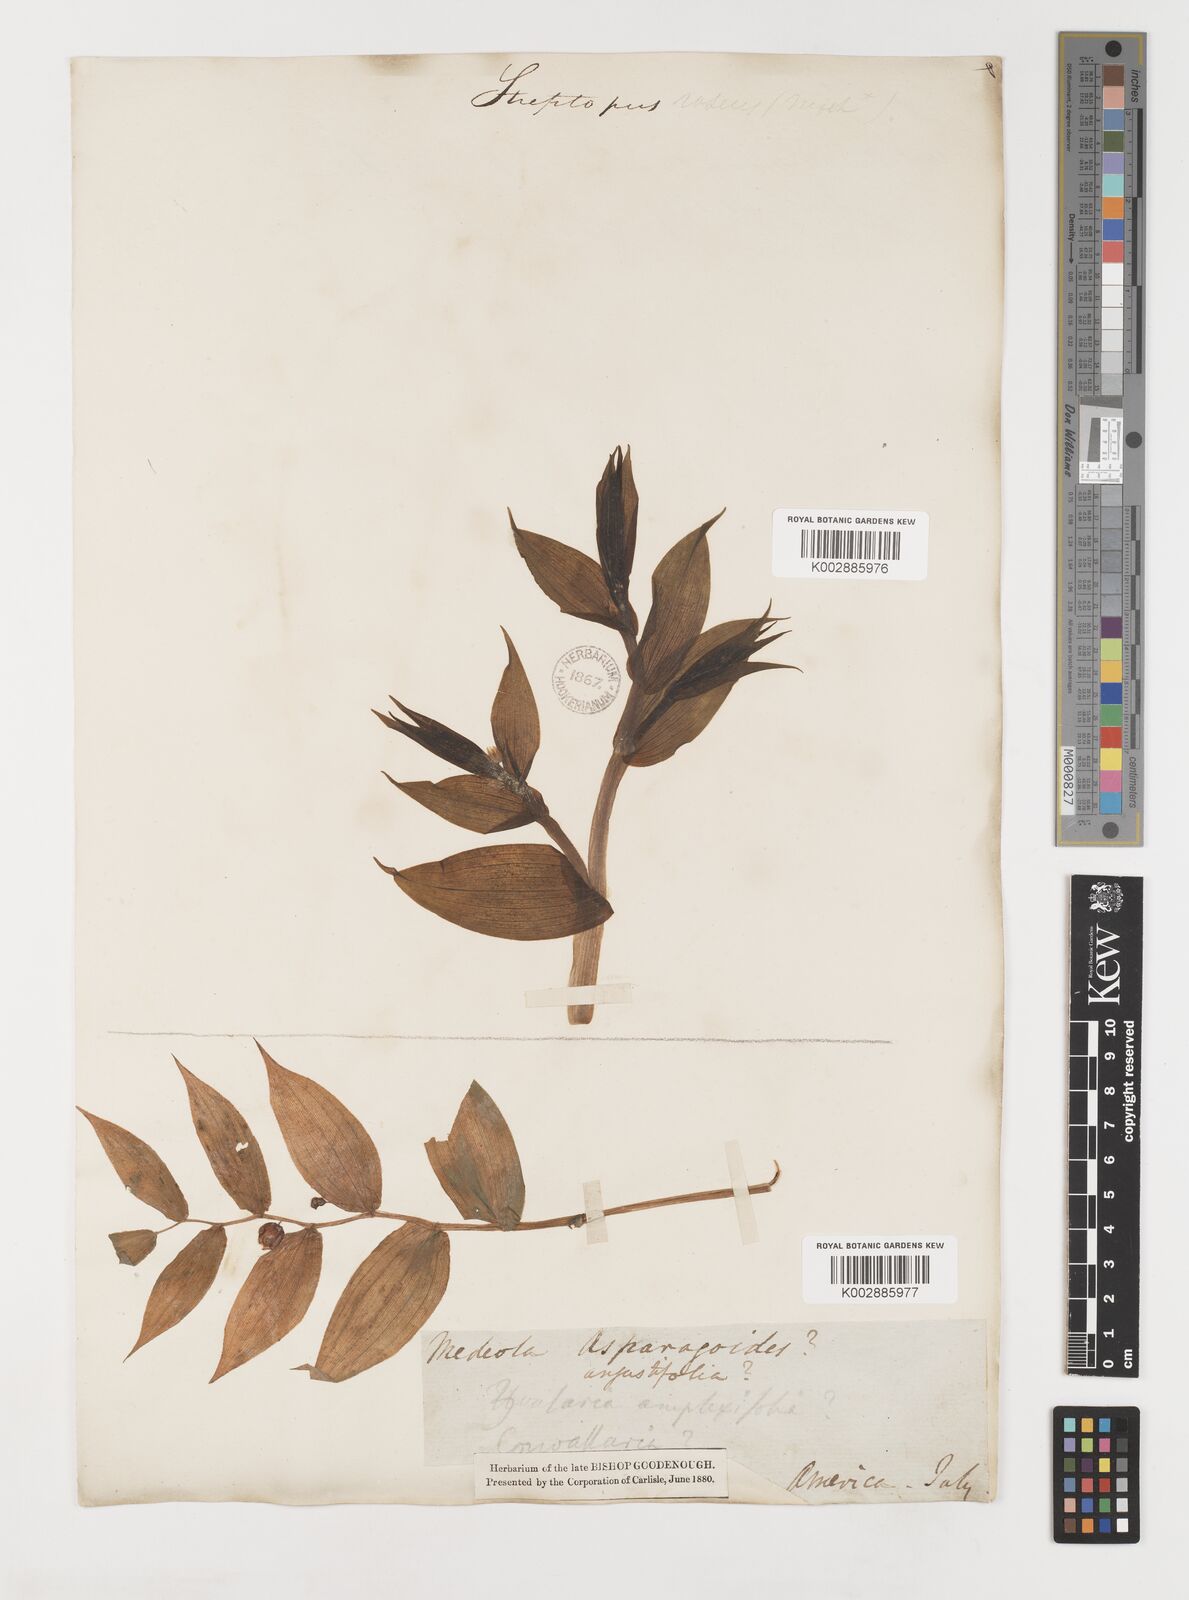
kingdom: Plantae
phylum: Tracheophyta
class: Liliopsida
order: Liliales
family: Liliaceae
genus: Streptopus
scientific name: Streptopus amplexifolius
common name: Clasp twisted stalk
